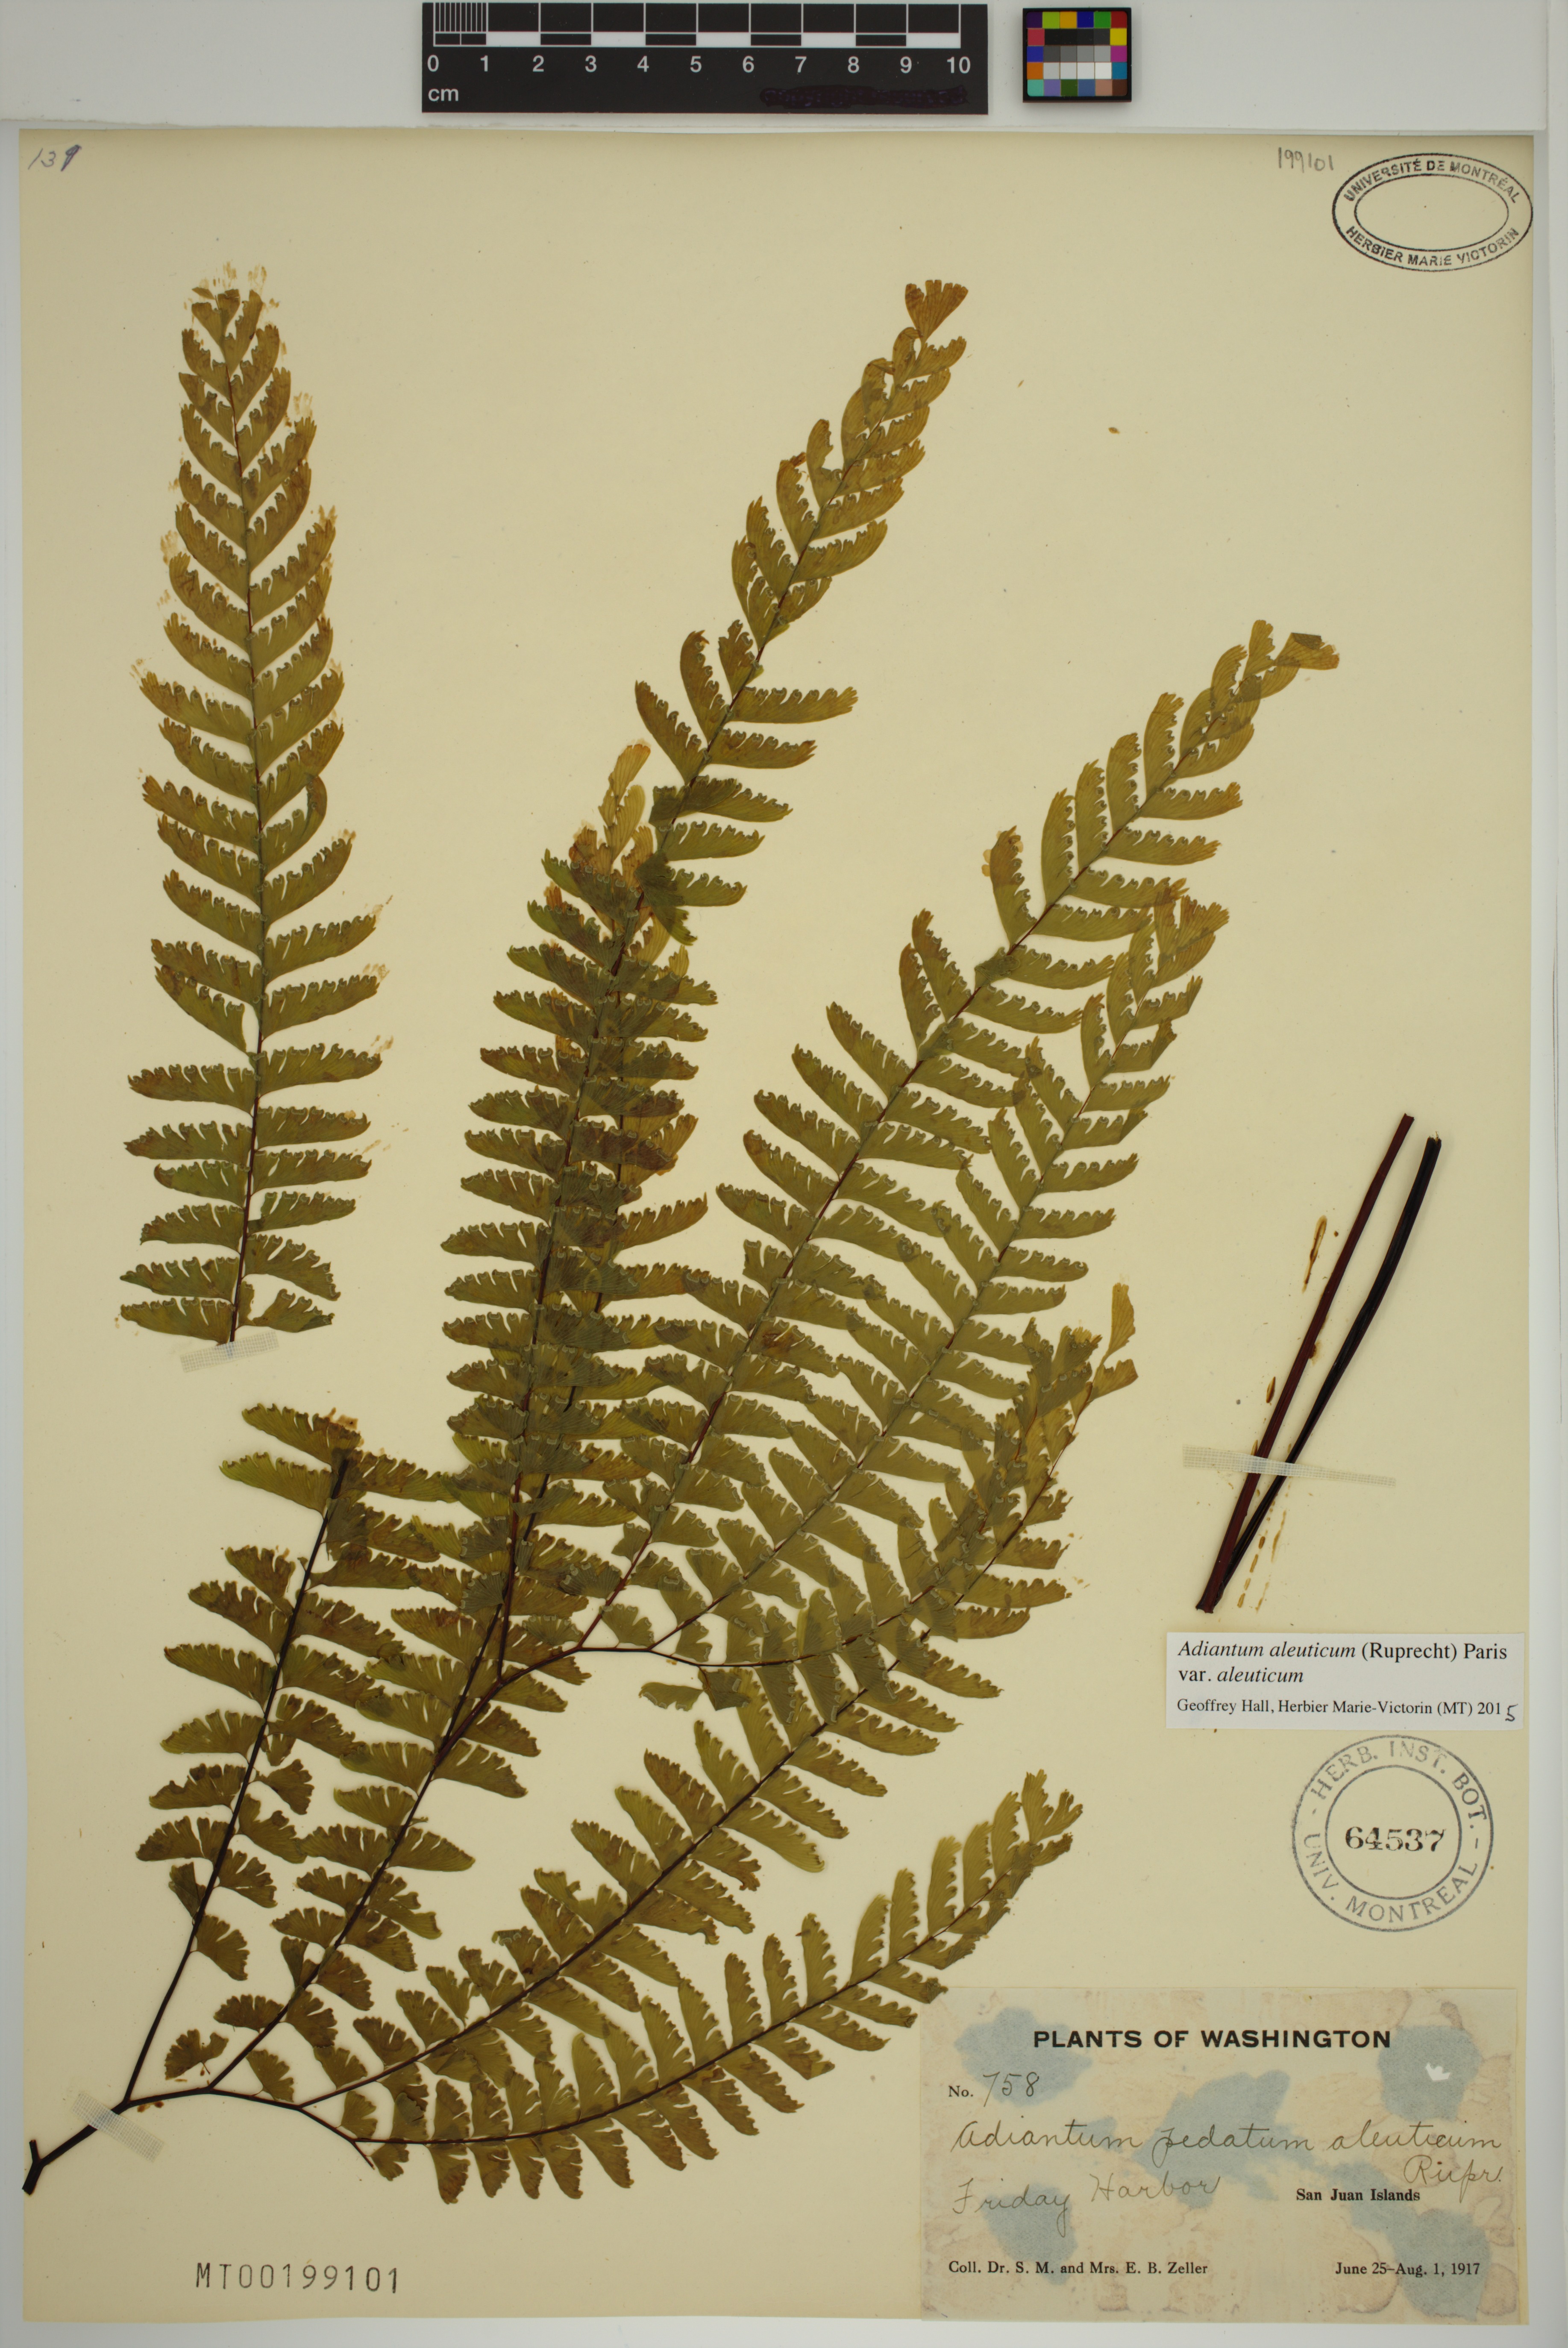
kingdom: Plantae
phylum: Tracheophyta
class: Polypodiopsida
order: Polypodiales
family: Pteridaceae
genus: Adiantum
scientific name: Adiantum aleuticum
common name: Aleutian maidenhair fern
